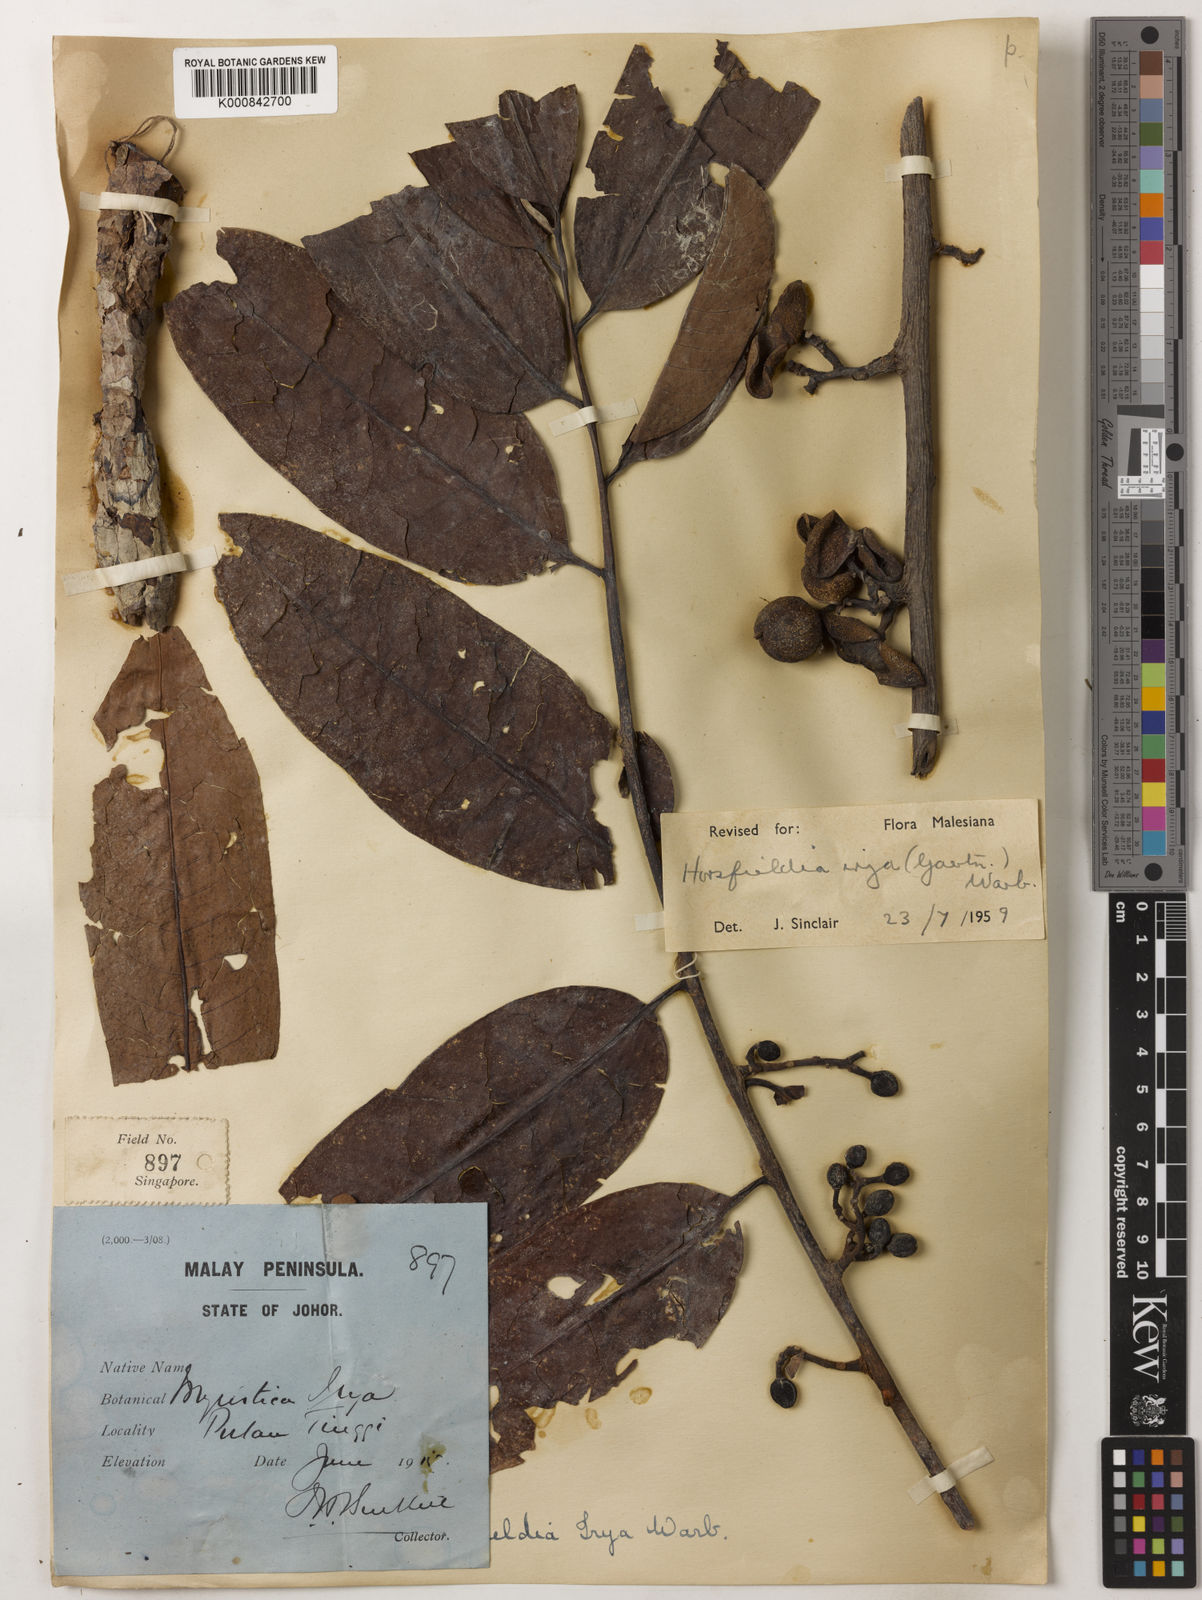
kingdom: Plantae
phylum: Tracheophyta
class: Magnoliopsida
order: Magnoliales
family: Myristicaceae
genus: Horsfieldia
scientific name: Horsfieldia irya
